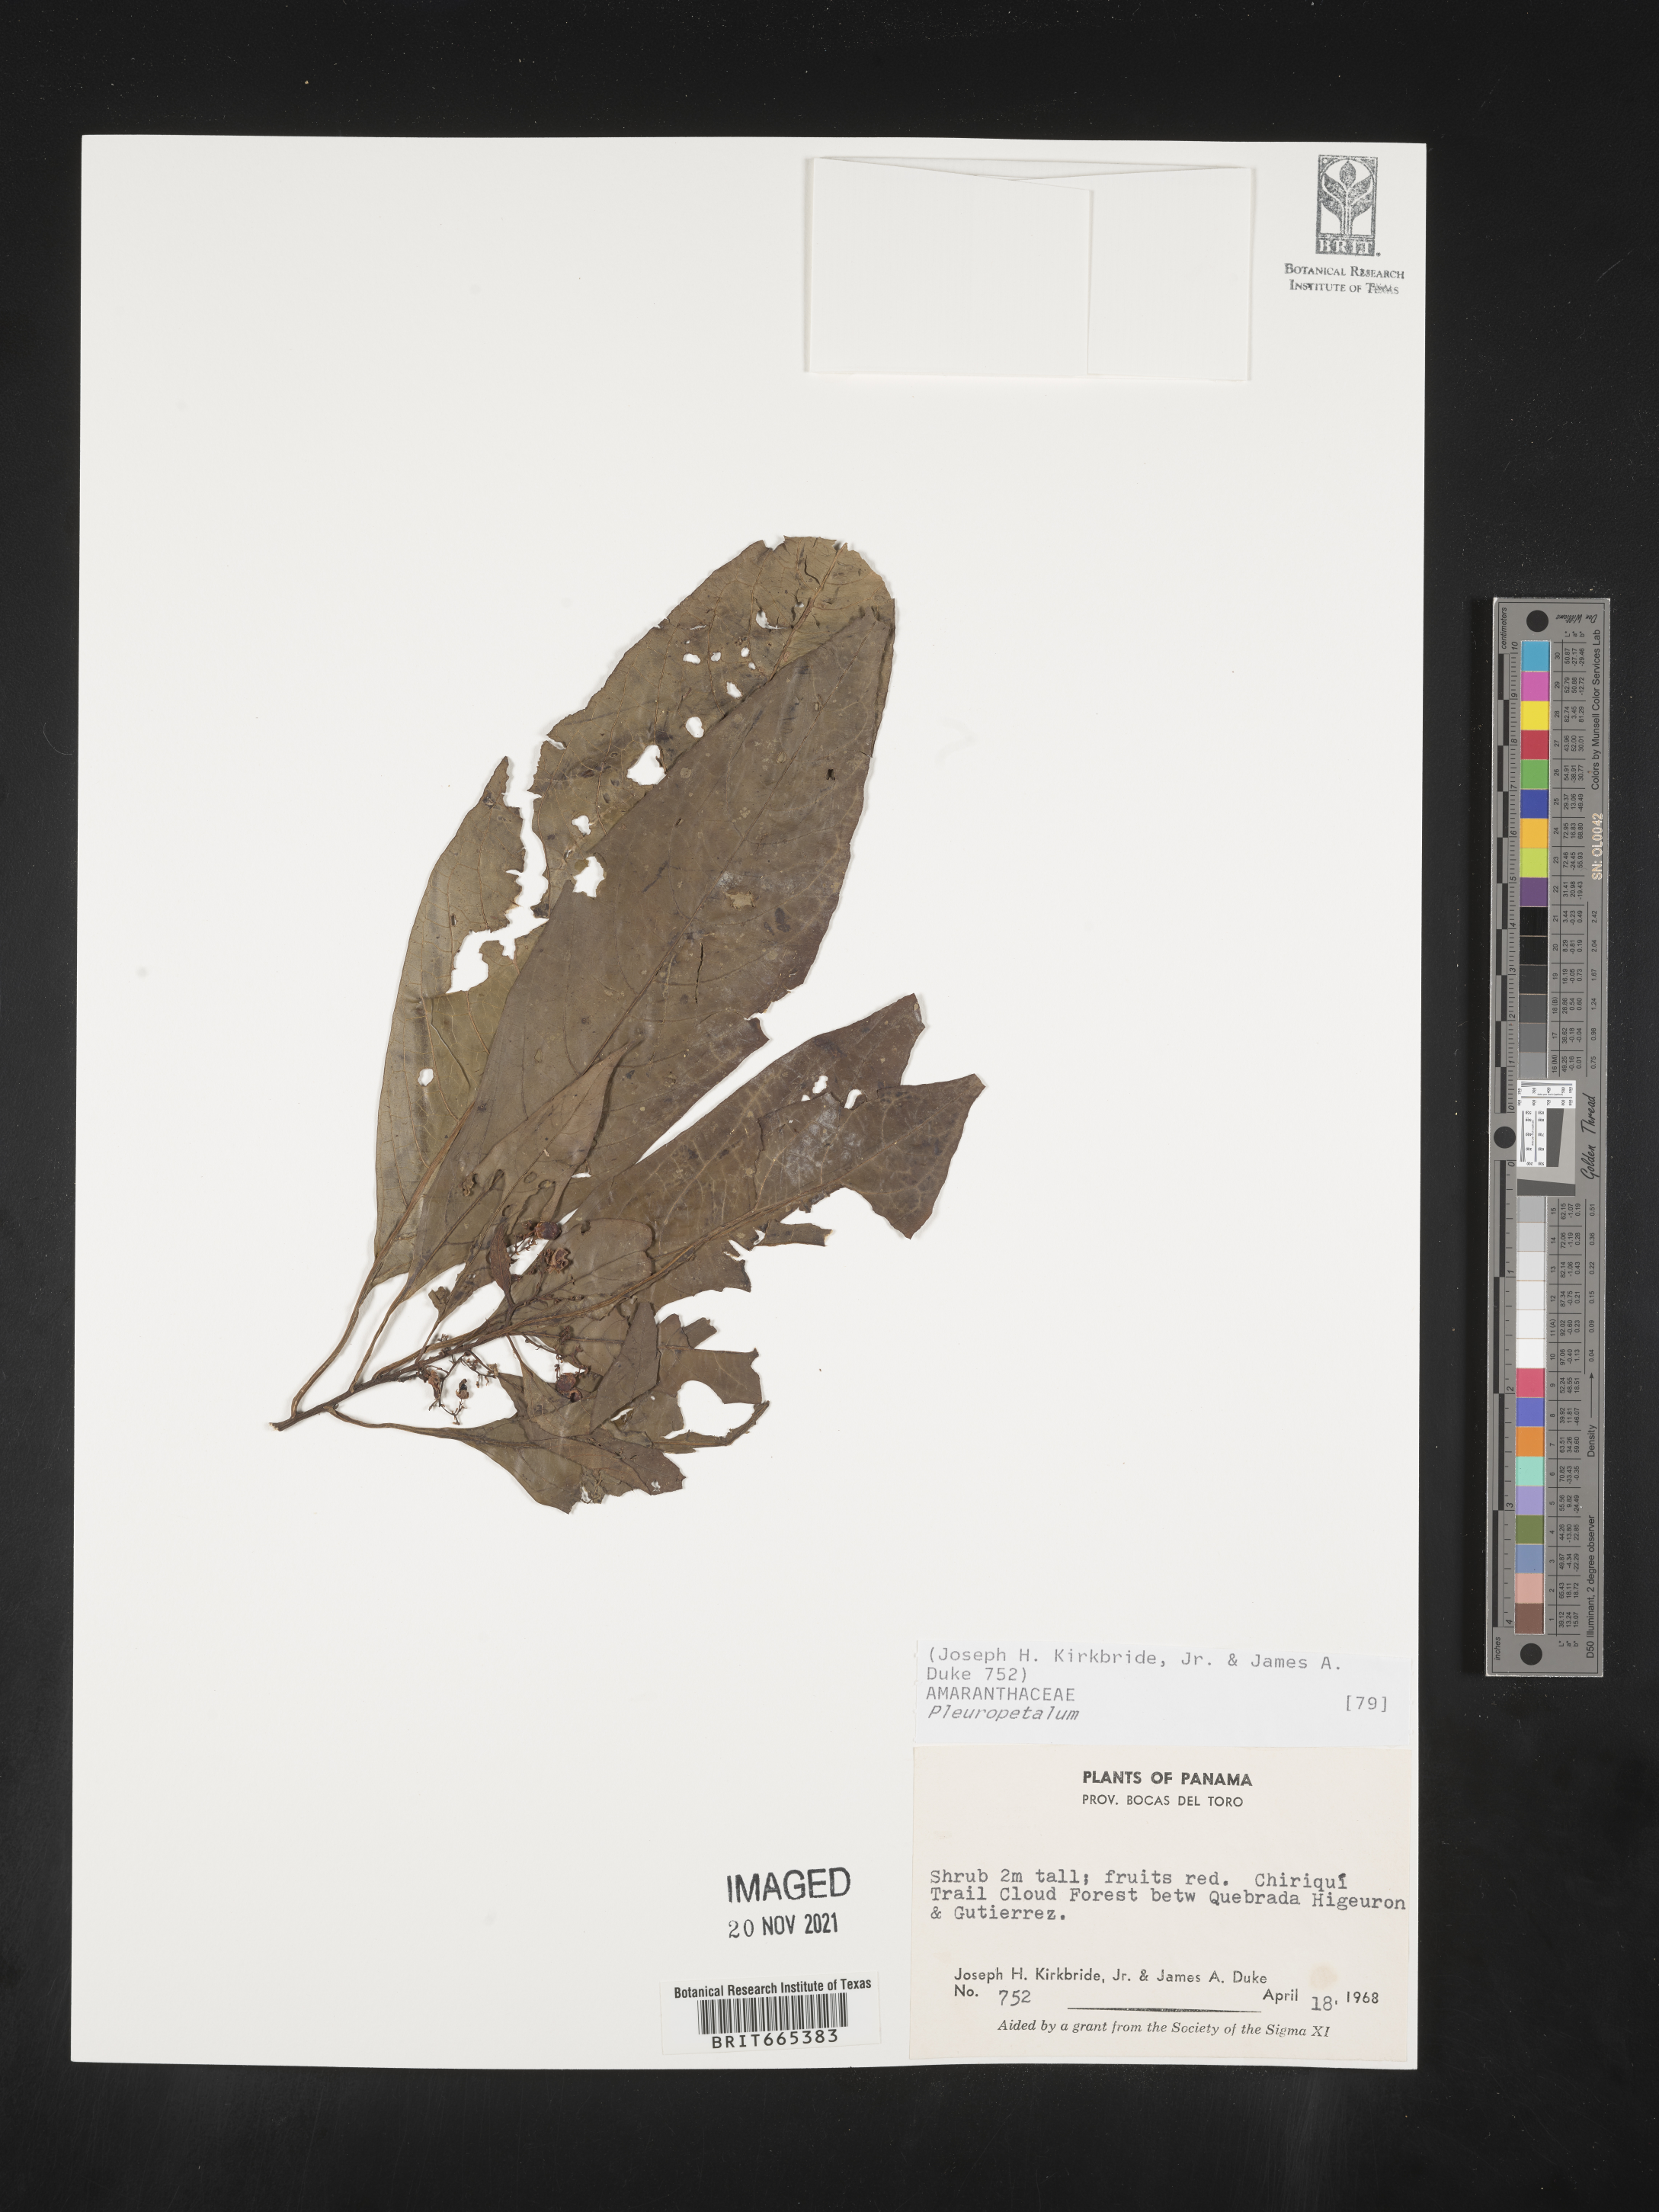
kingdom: Plantae
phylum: Tracheophyta
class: Magnoliopsida
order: Caryophyllales
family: Amaranthaceae
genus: Pleuropetalum
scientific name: Pleuropetalum
